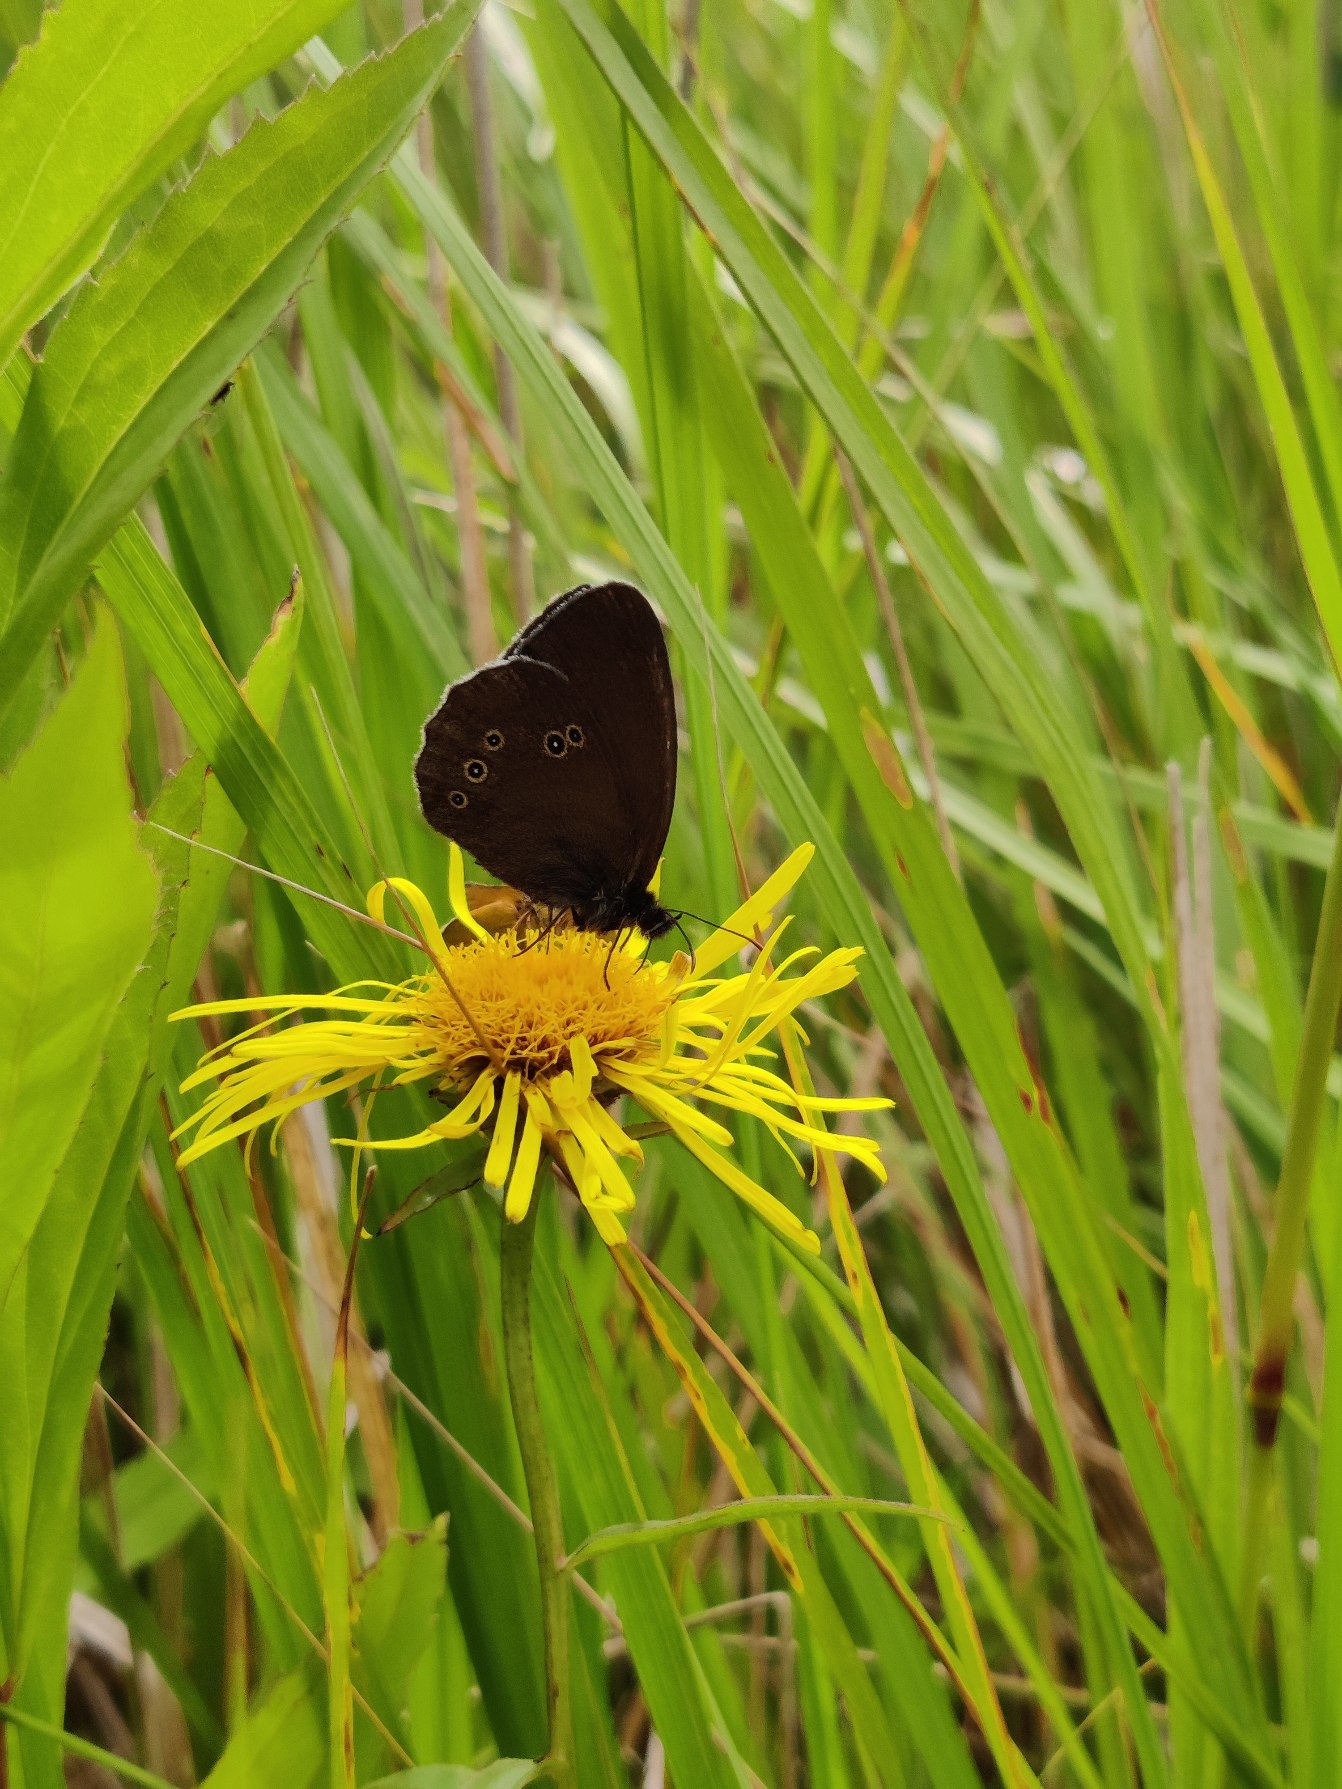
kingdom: Animalia
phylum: Arthropoda
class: Insecta
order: Lepidoptera
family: Nymphalidae
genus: Aphantopus
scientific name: Aphantopus hyperantus
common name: Engrandøje
